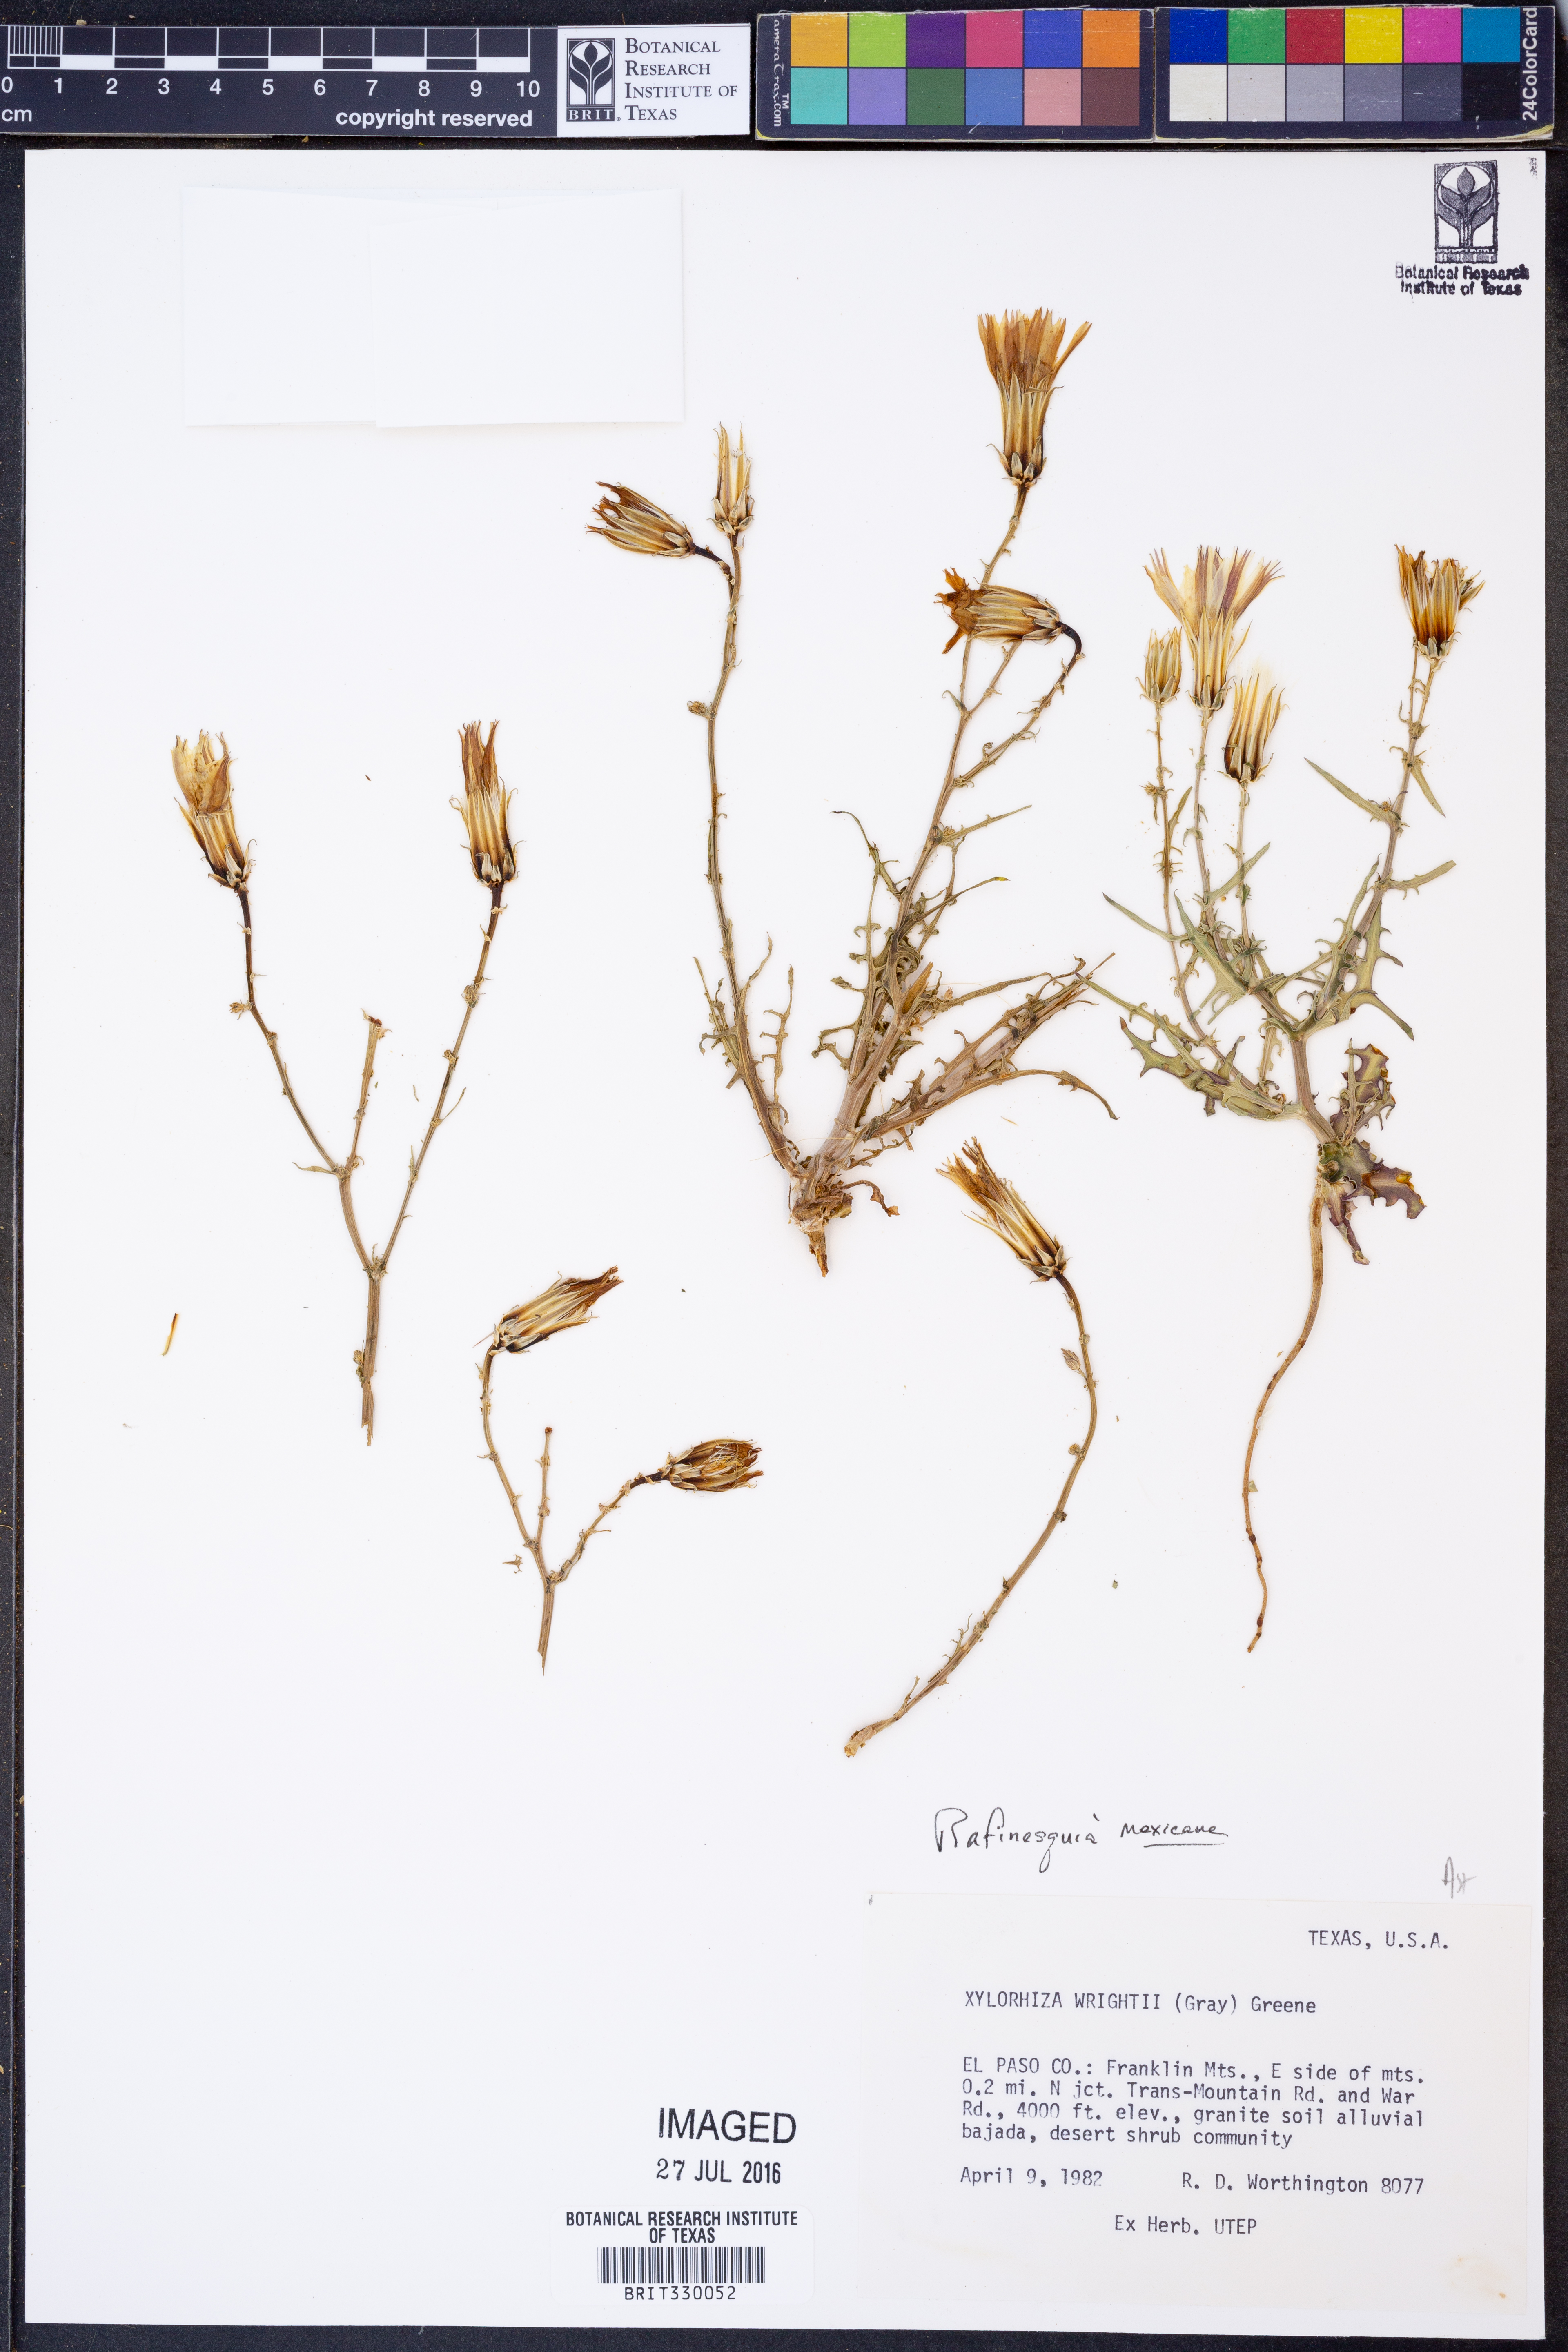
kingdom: Plantae
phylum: Tracheophyta
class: Magnoliopsida
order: Asterales
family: Asteraceae
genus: Rafinesquia
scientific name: Rafinesquia neomexicana
